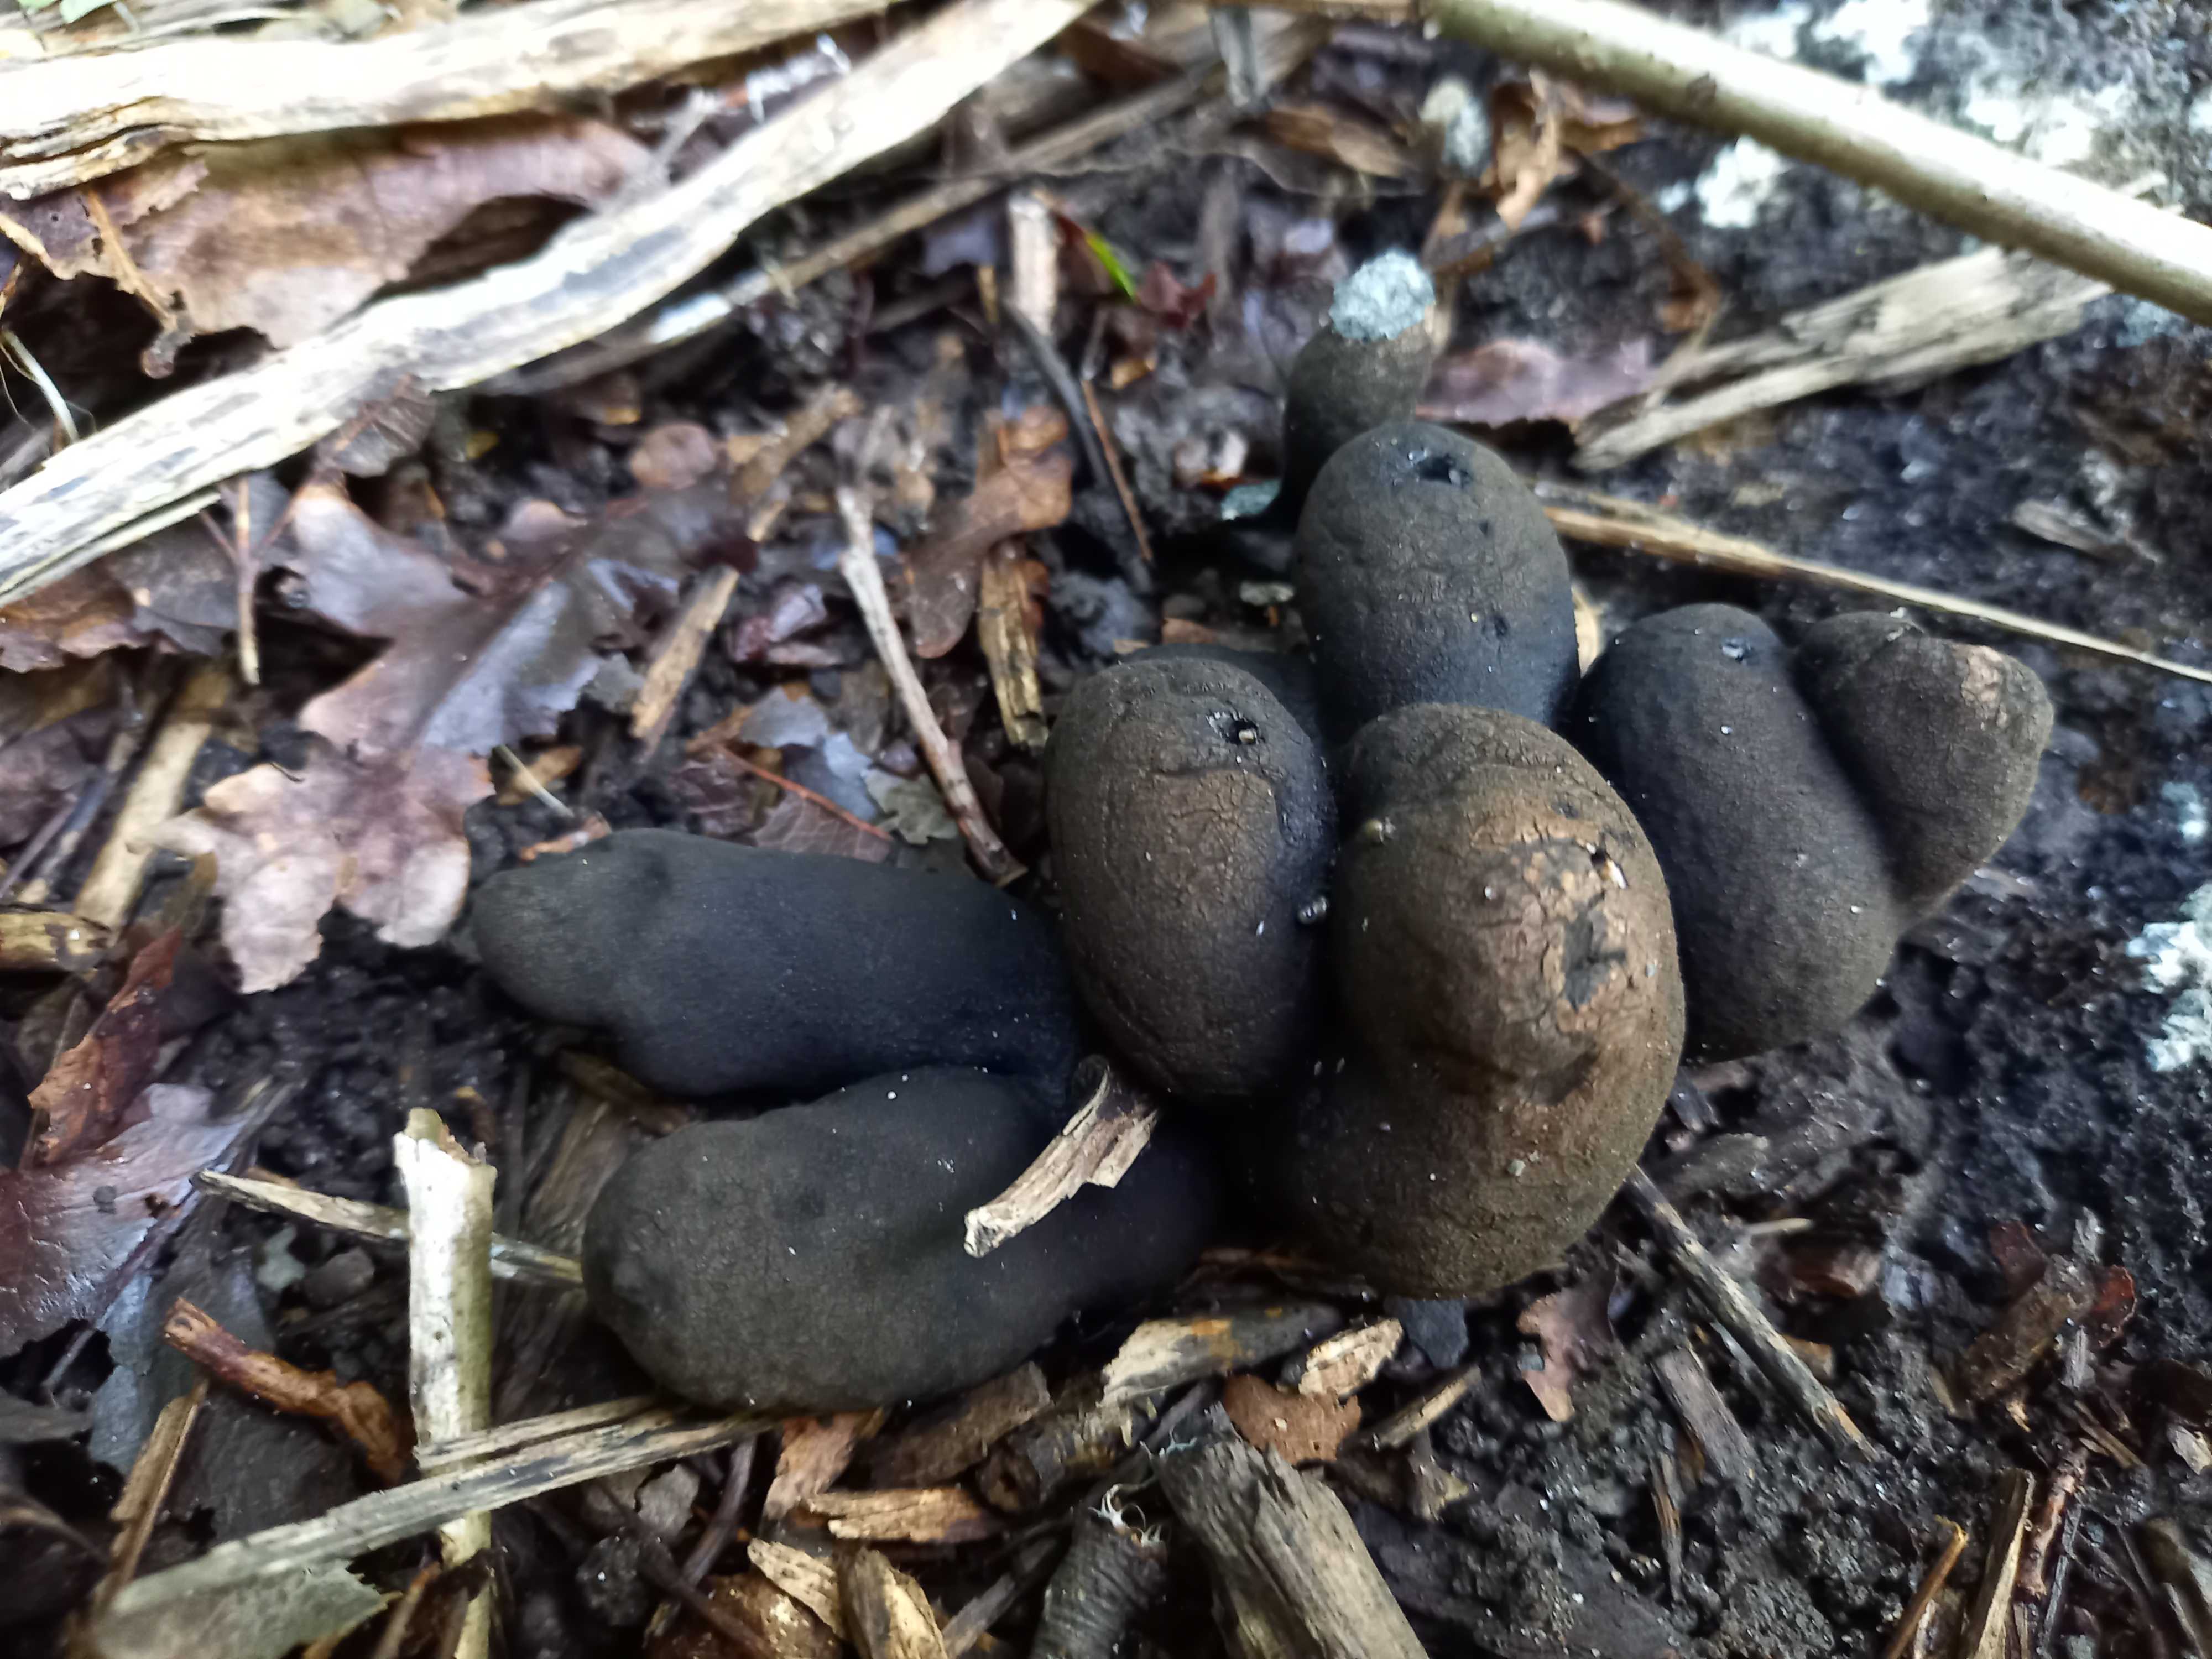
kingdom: Fungi
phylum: Ascomycota
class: Sordariomycetes
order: Xylariales
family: Xylariaceae
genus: Xylaria
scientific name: Xylaria polymorpha
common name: kølle-stødsvamp
